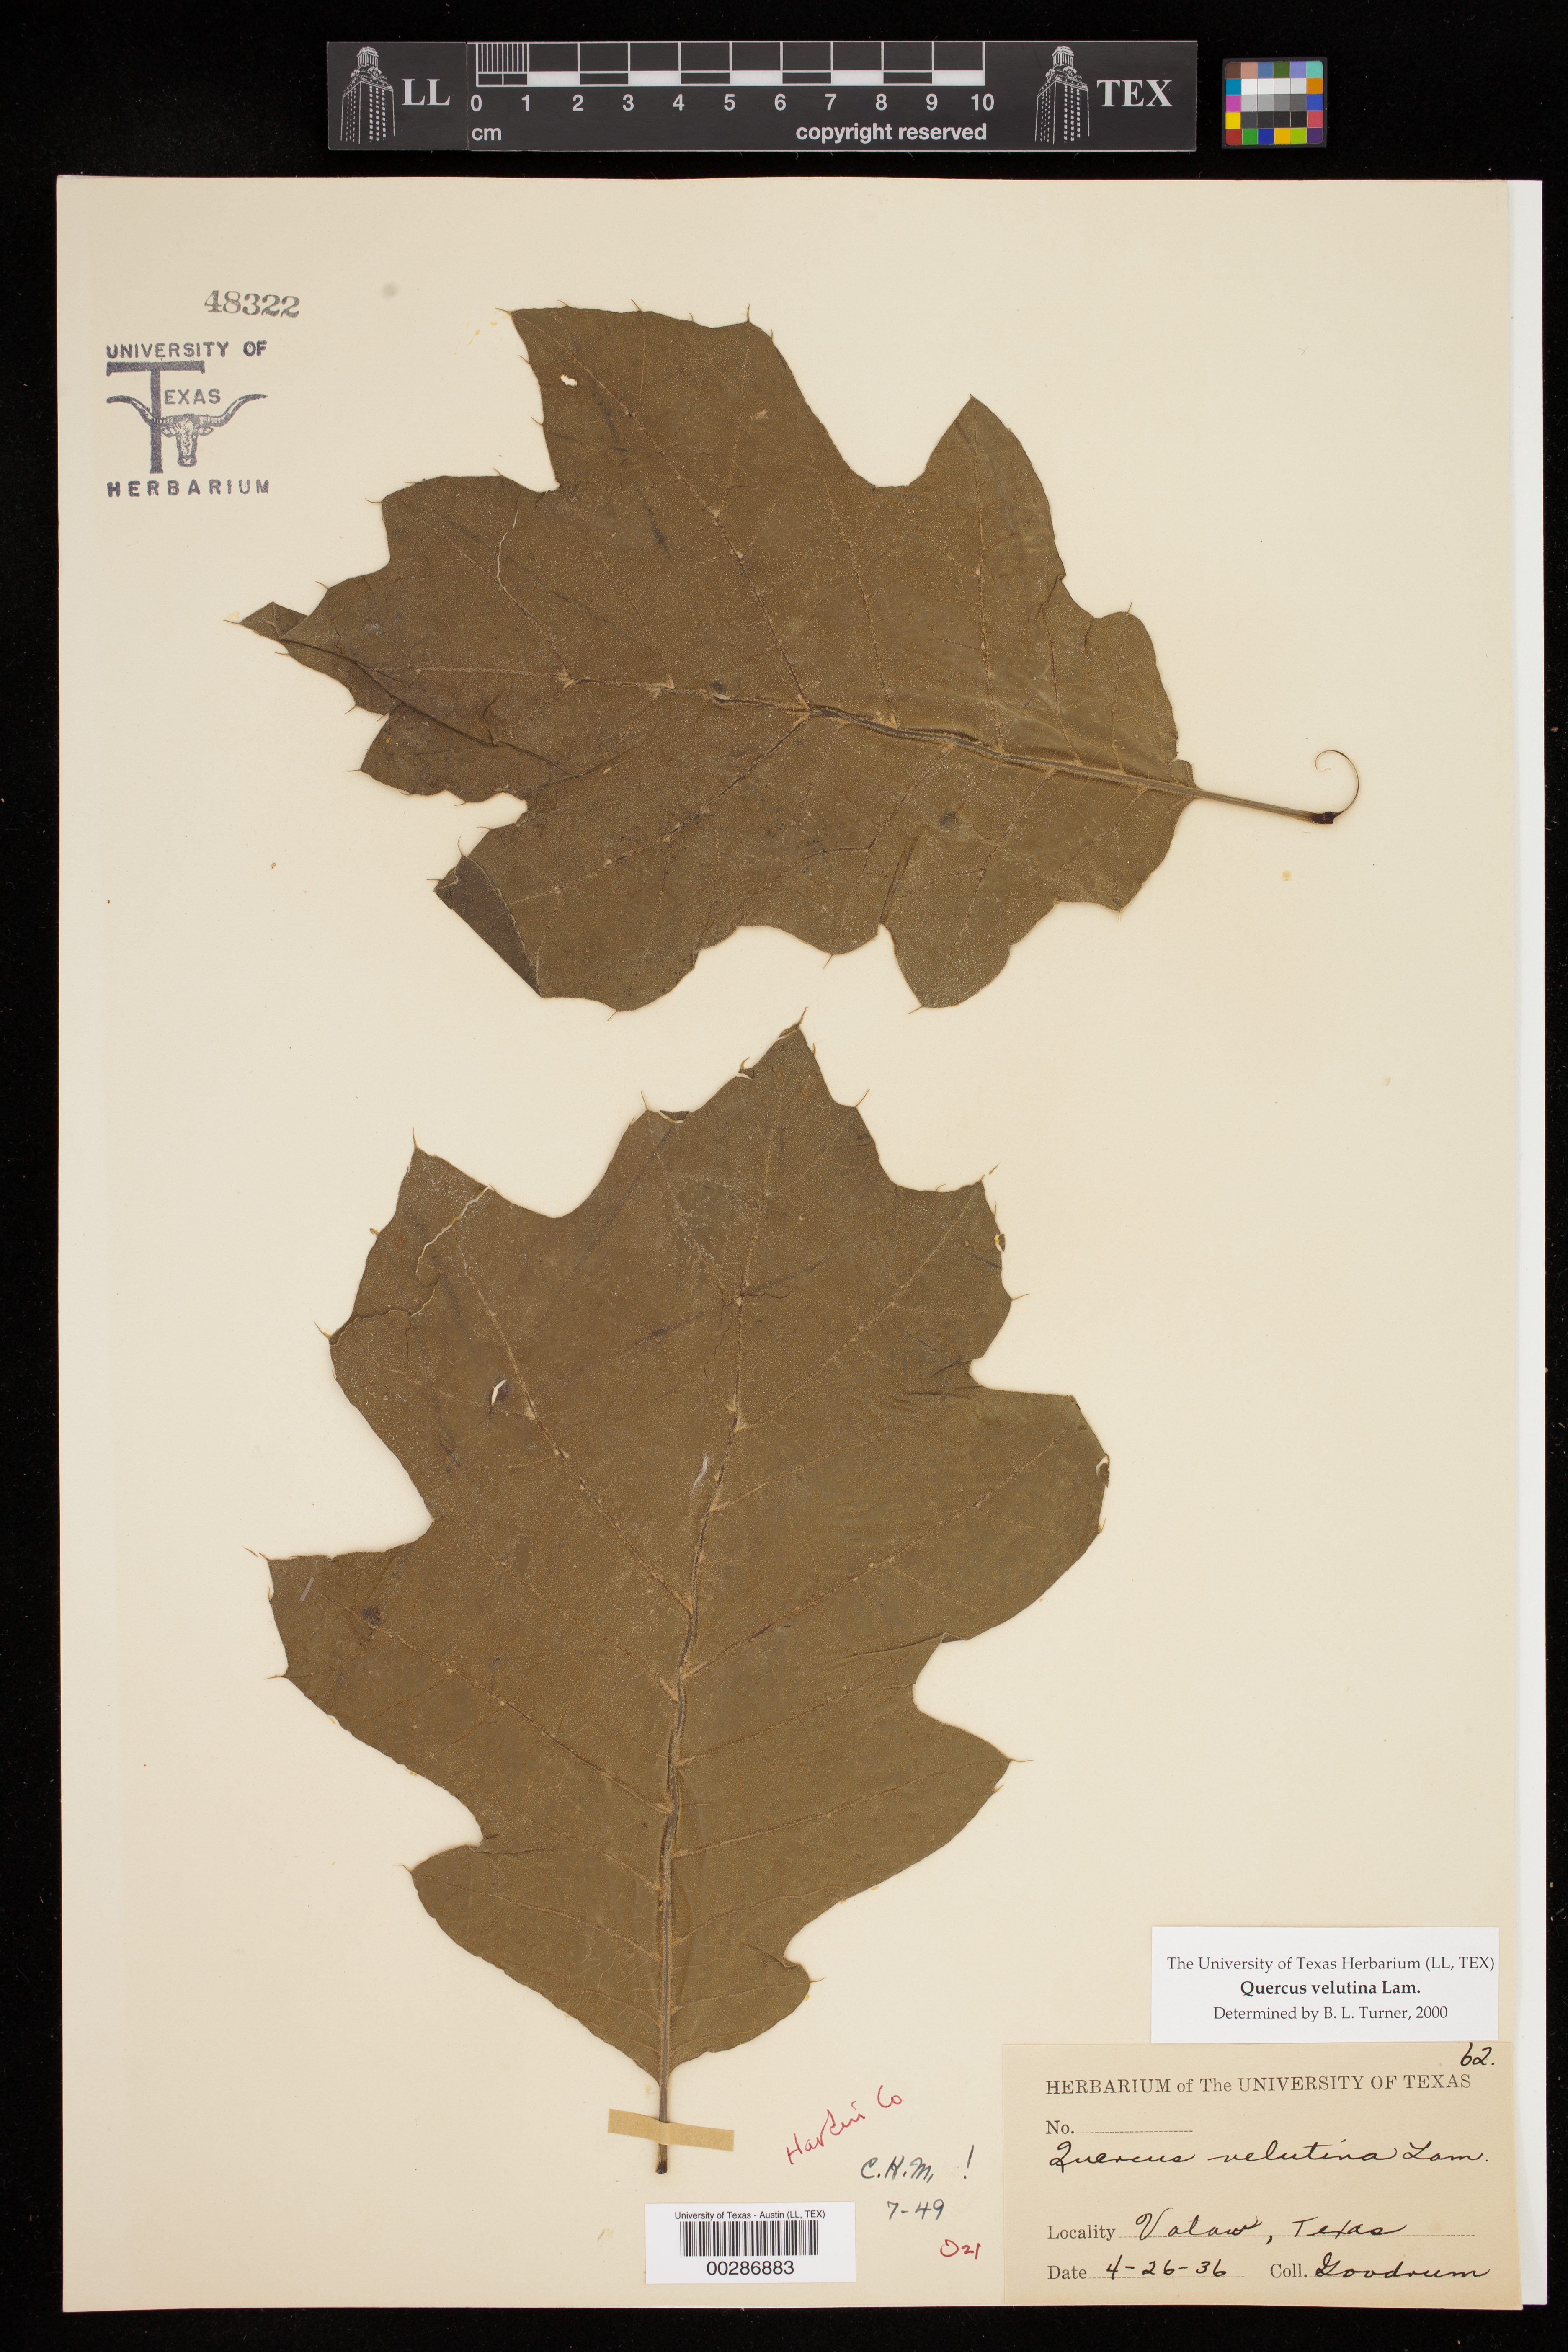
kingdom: Plantae
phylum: Tracheophyta
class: Magnoliopsida
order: Fagales
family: Fagaceae
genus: Quercus
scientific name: Quercus velutina
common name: Black oak
